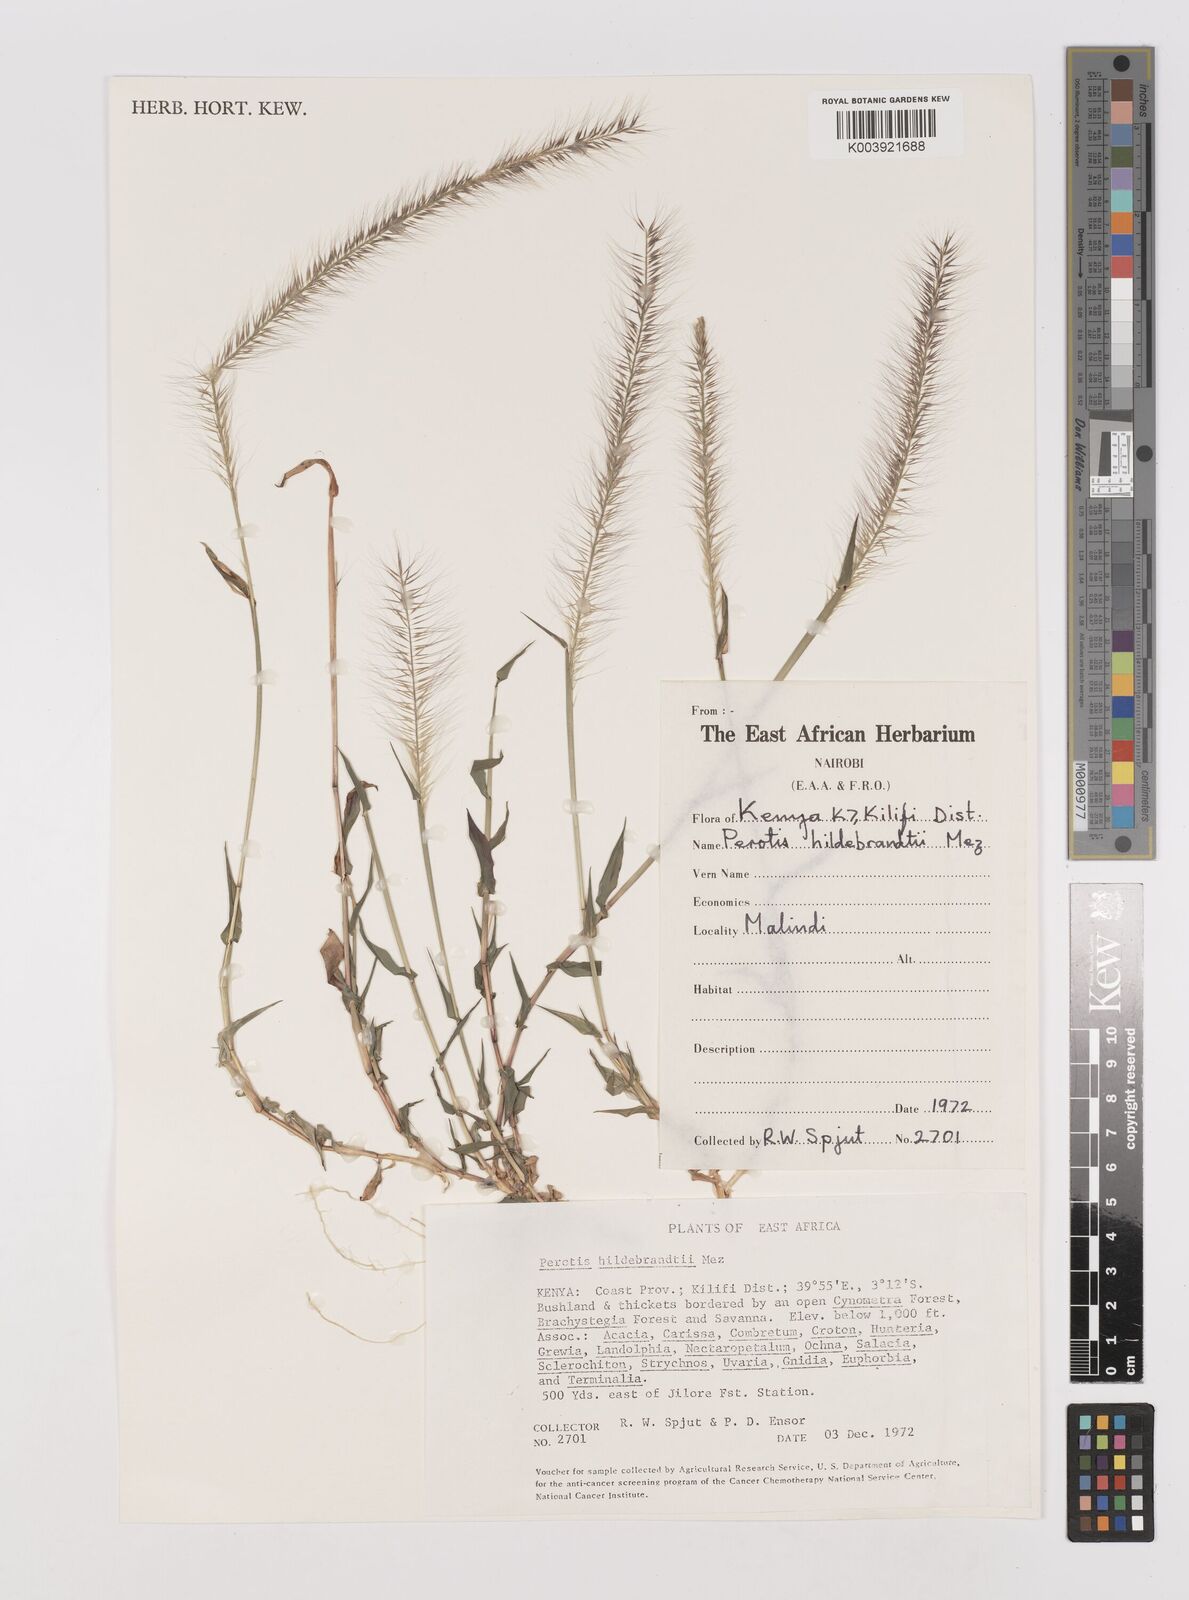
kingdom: Plantae
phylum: Tracheophyta
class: Liliopsida
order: Poales
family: Poaceae
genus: Perotis
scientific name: Perotis hildebrandtii
